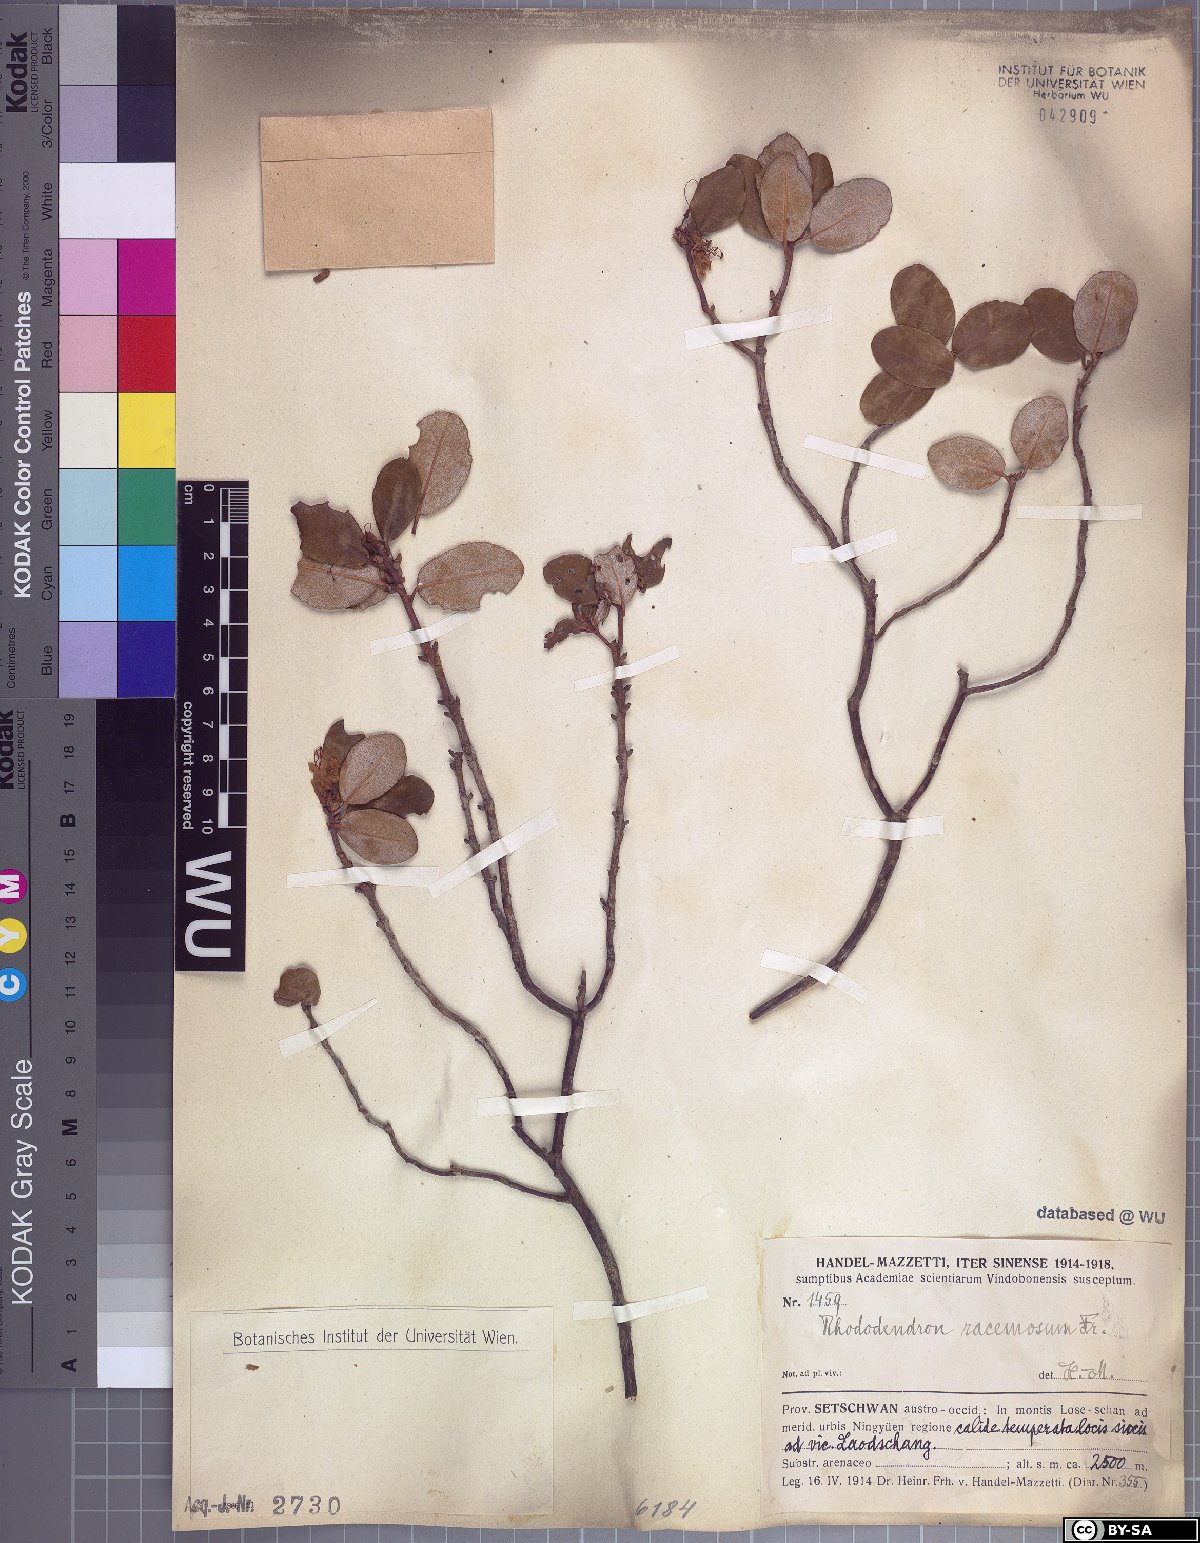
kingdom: Plantae
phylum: Tracheophyta
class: Magnoliopsida
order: Ericales
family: Ericaceae
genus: Rhododendron
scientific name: Rhododendron racemosum
